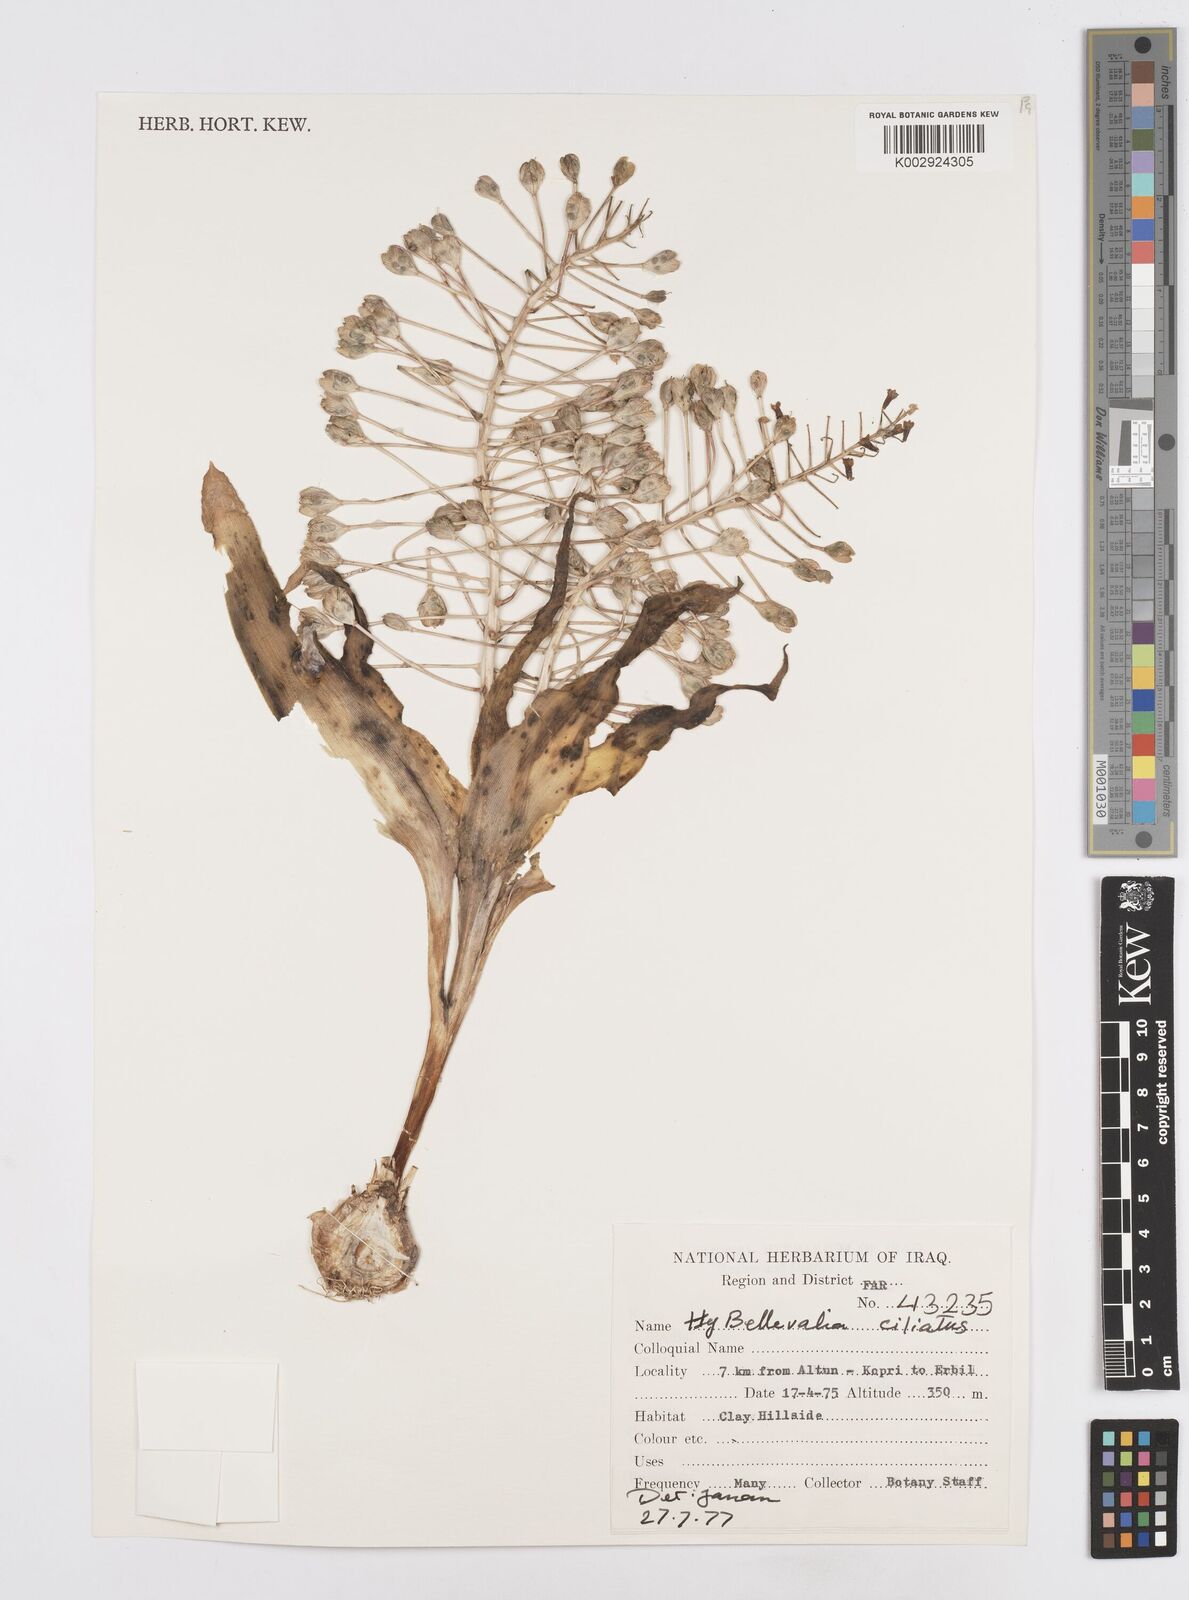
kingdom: Plantae
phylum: Tracheophyta
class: Liliopsida
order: Asparagales
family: Asparagaceae
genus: Bellevalia
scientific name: Bellevalia ciliata
